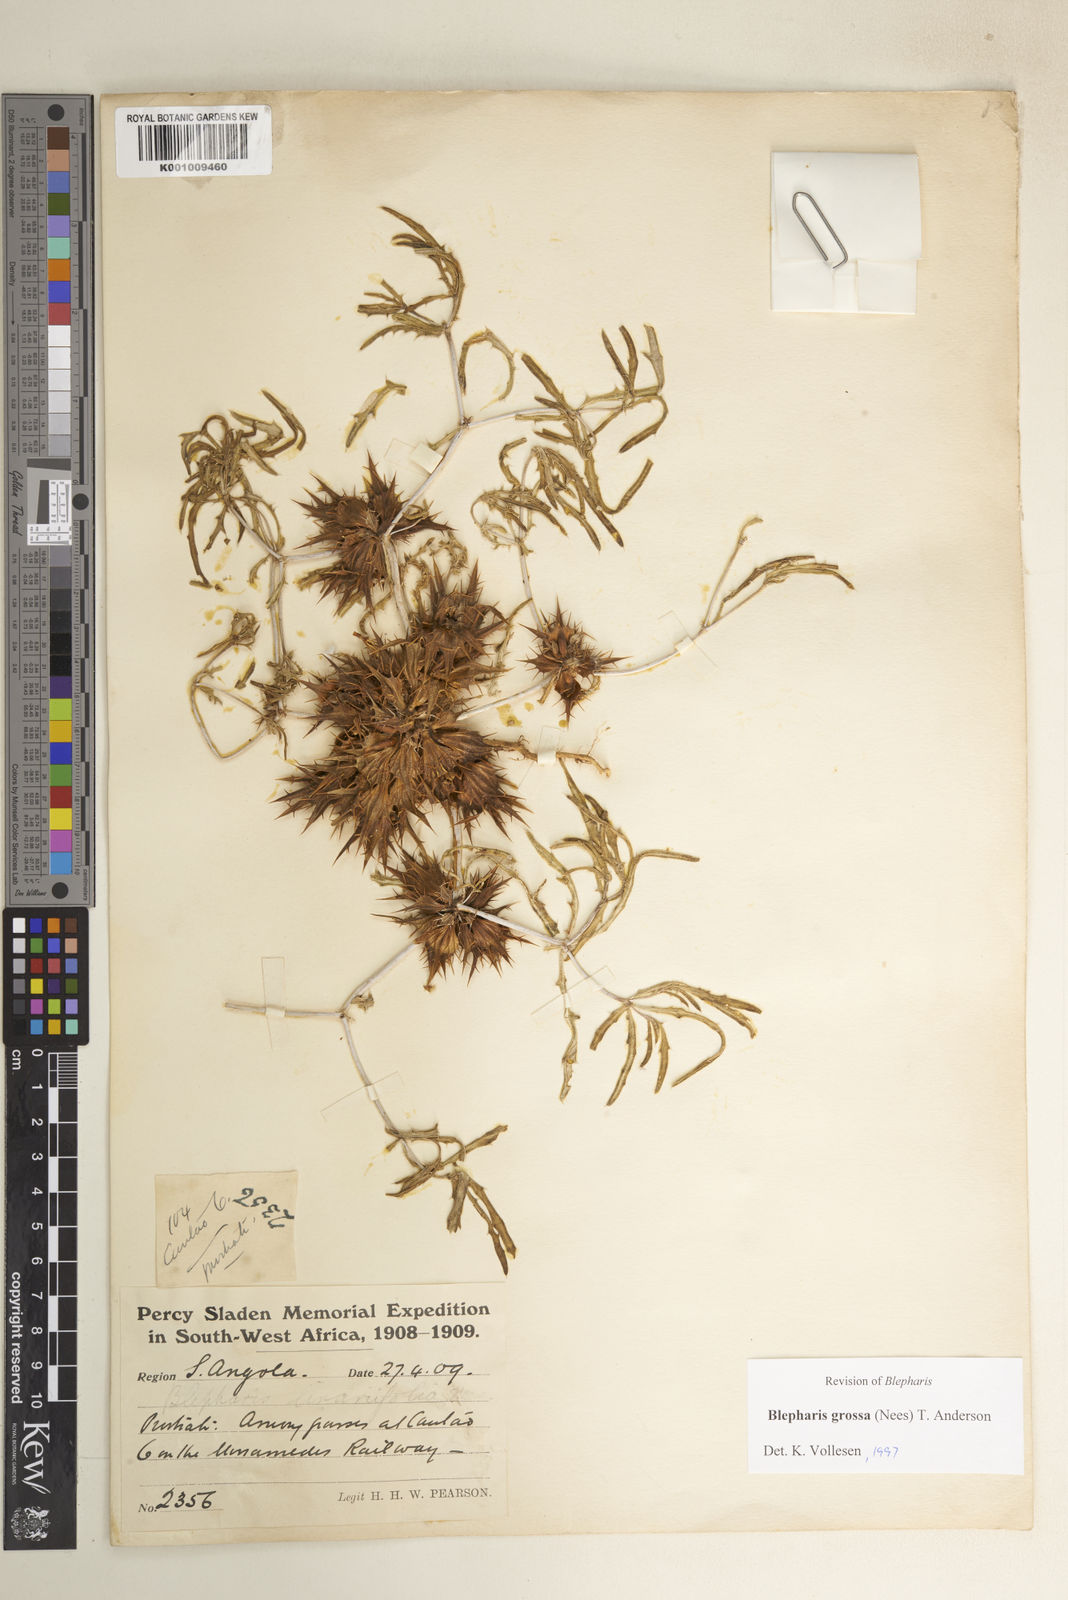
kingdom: Plantae
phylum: Tracheophyta
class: Magnoliopsida
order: Lamiales
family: Acanthaceae
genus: Blepharis
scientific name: Blepharis grossa
